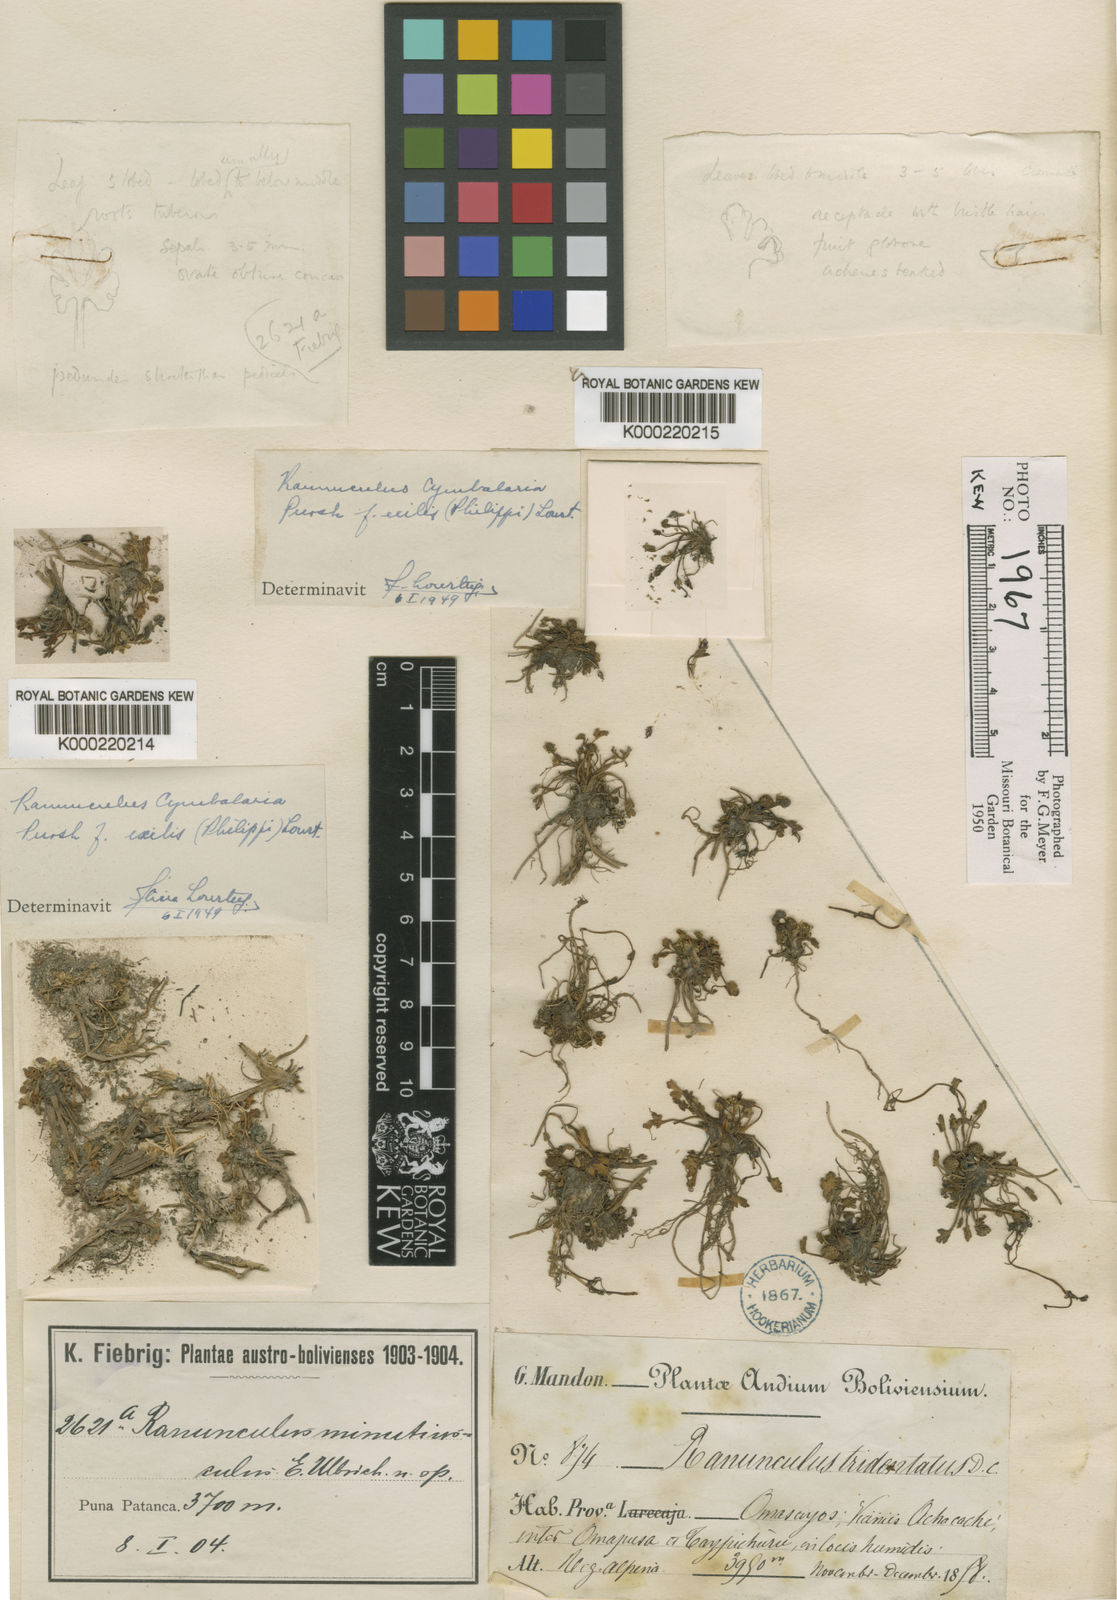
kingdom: Plantae
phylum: Tracheophyta
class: Magnoliopsida
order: Ranunculales
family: Ranunculaceae
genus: Halerpestes
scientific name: Halerpestes cymbalaria
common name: Seaside crowfoot
